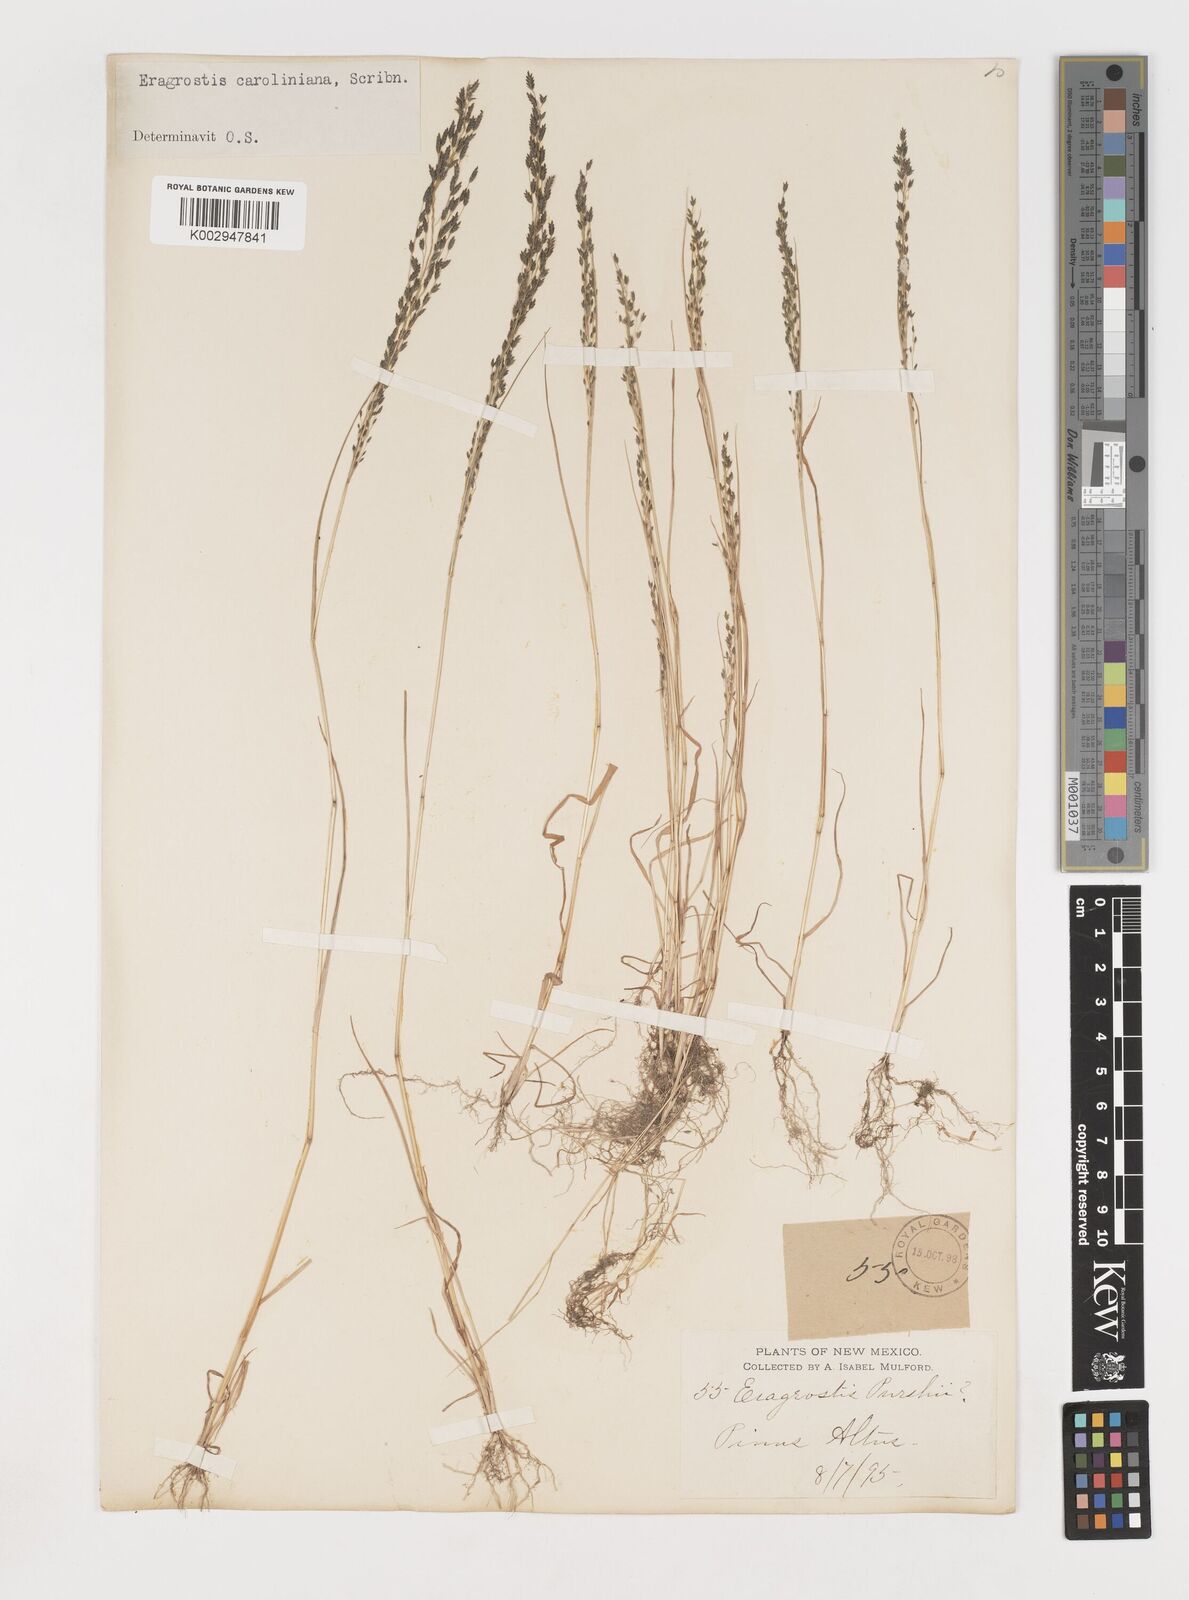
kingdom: Plantae
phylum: Tracheophyta
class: Liliopsida
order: Poales
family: Poaceae
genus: Eragrostis
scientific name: Eragrostis pectinacea
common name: Tufted lovegrass
